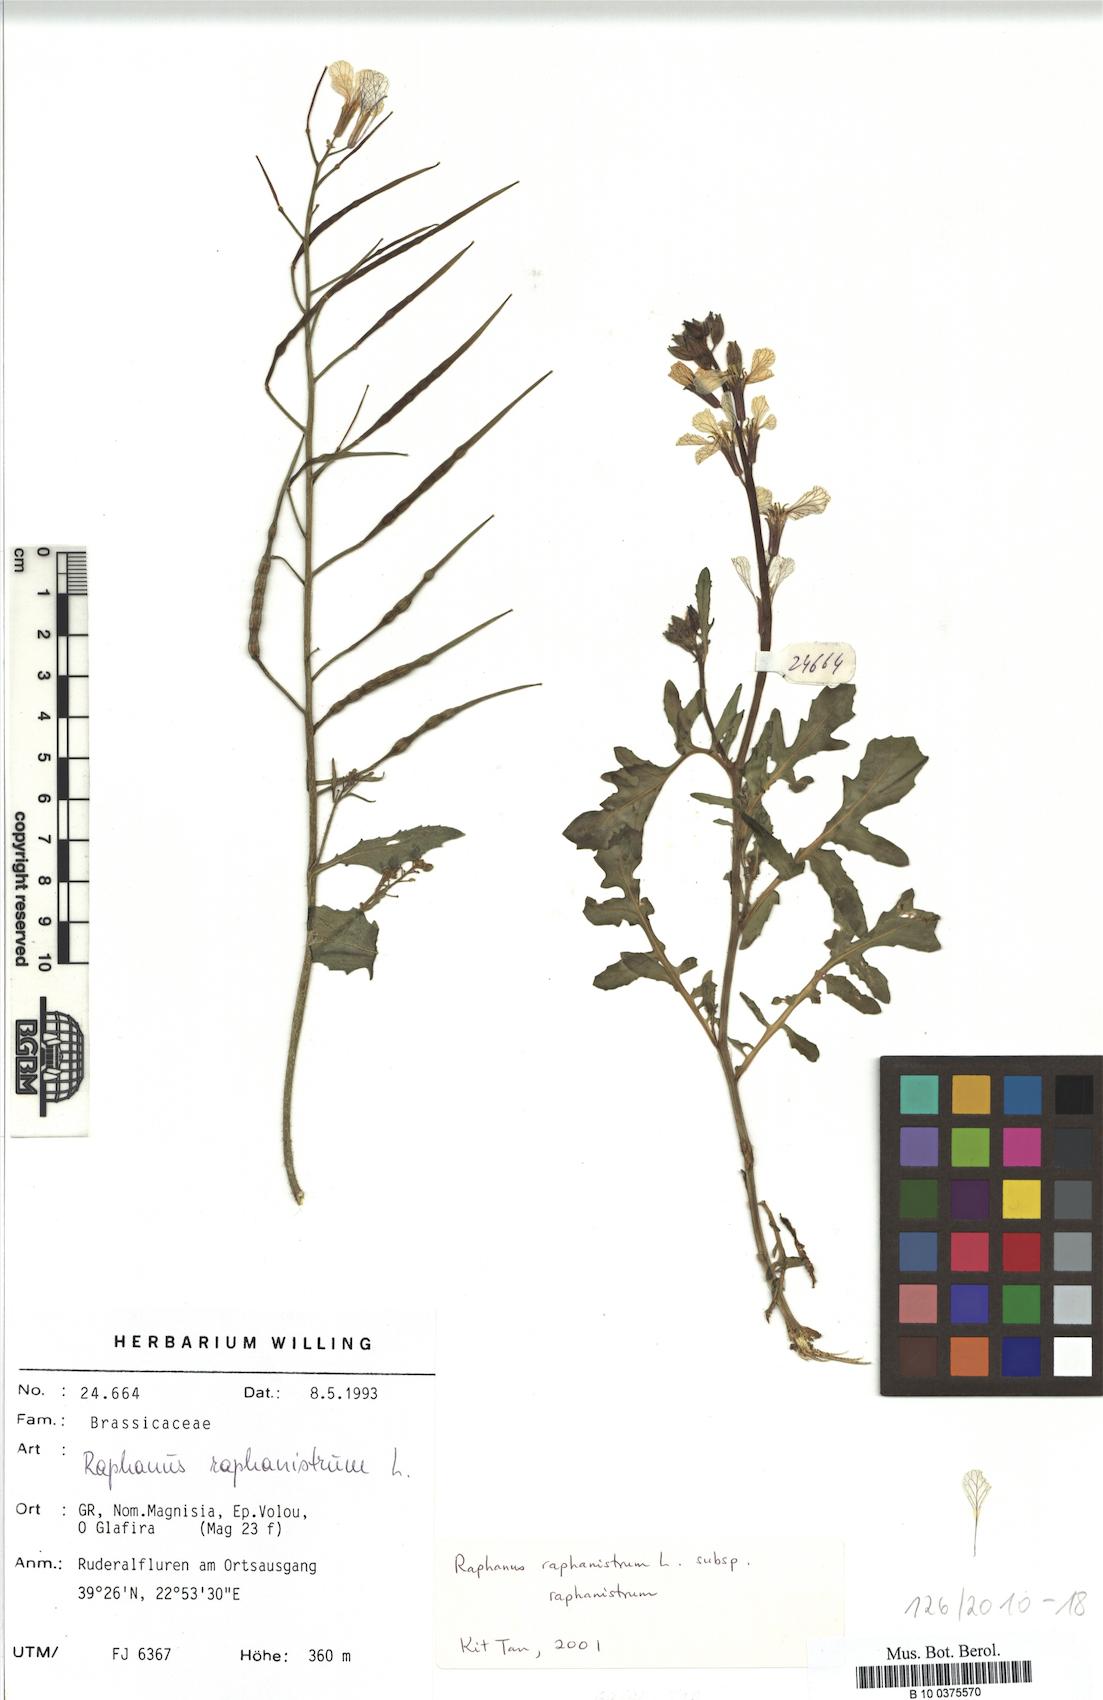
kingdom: Plantae
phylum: Tracheophyta
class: Magnoliopsida
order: Brassicales
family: Brassicaceae
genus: Raphanus
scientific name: Raphanus raphanistrum
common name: Wild radish
